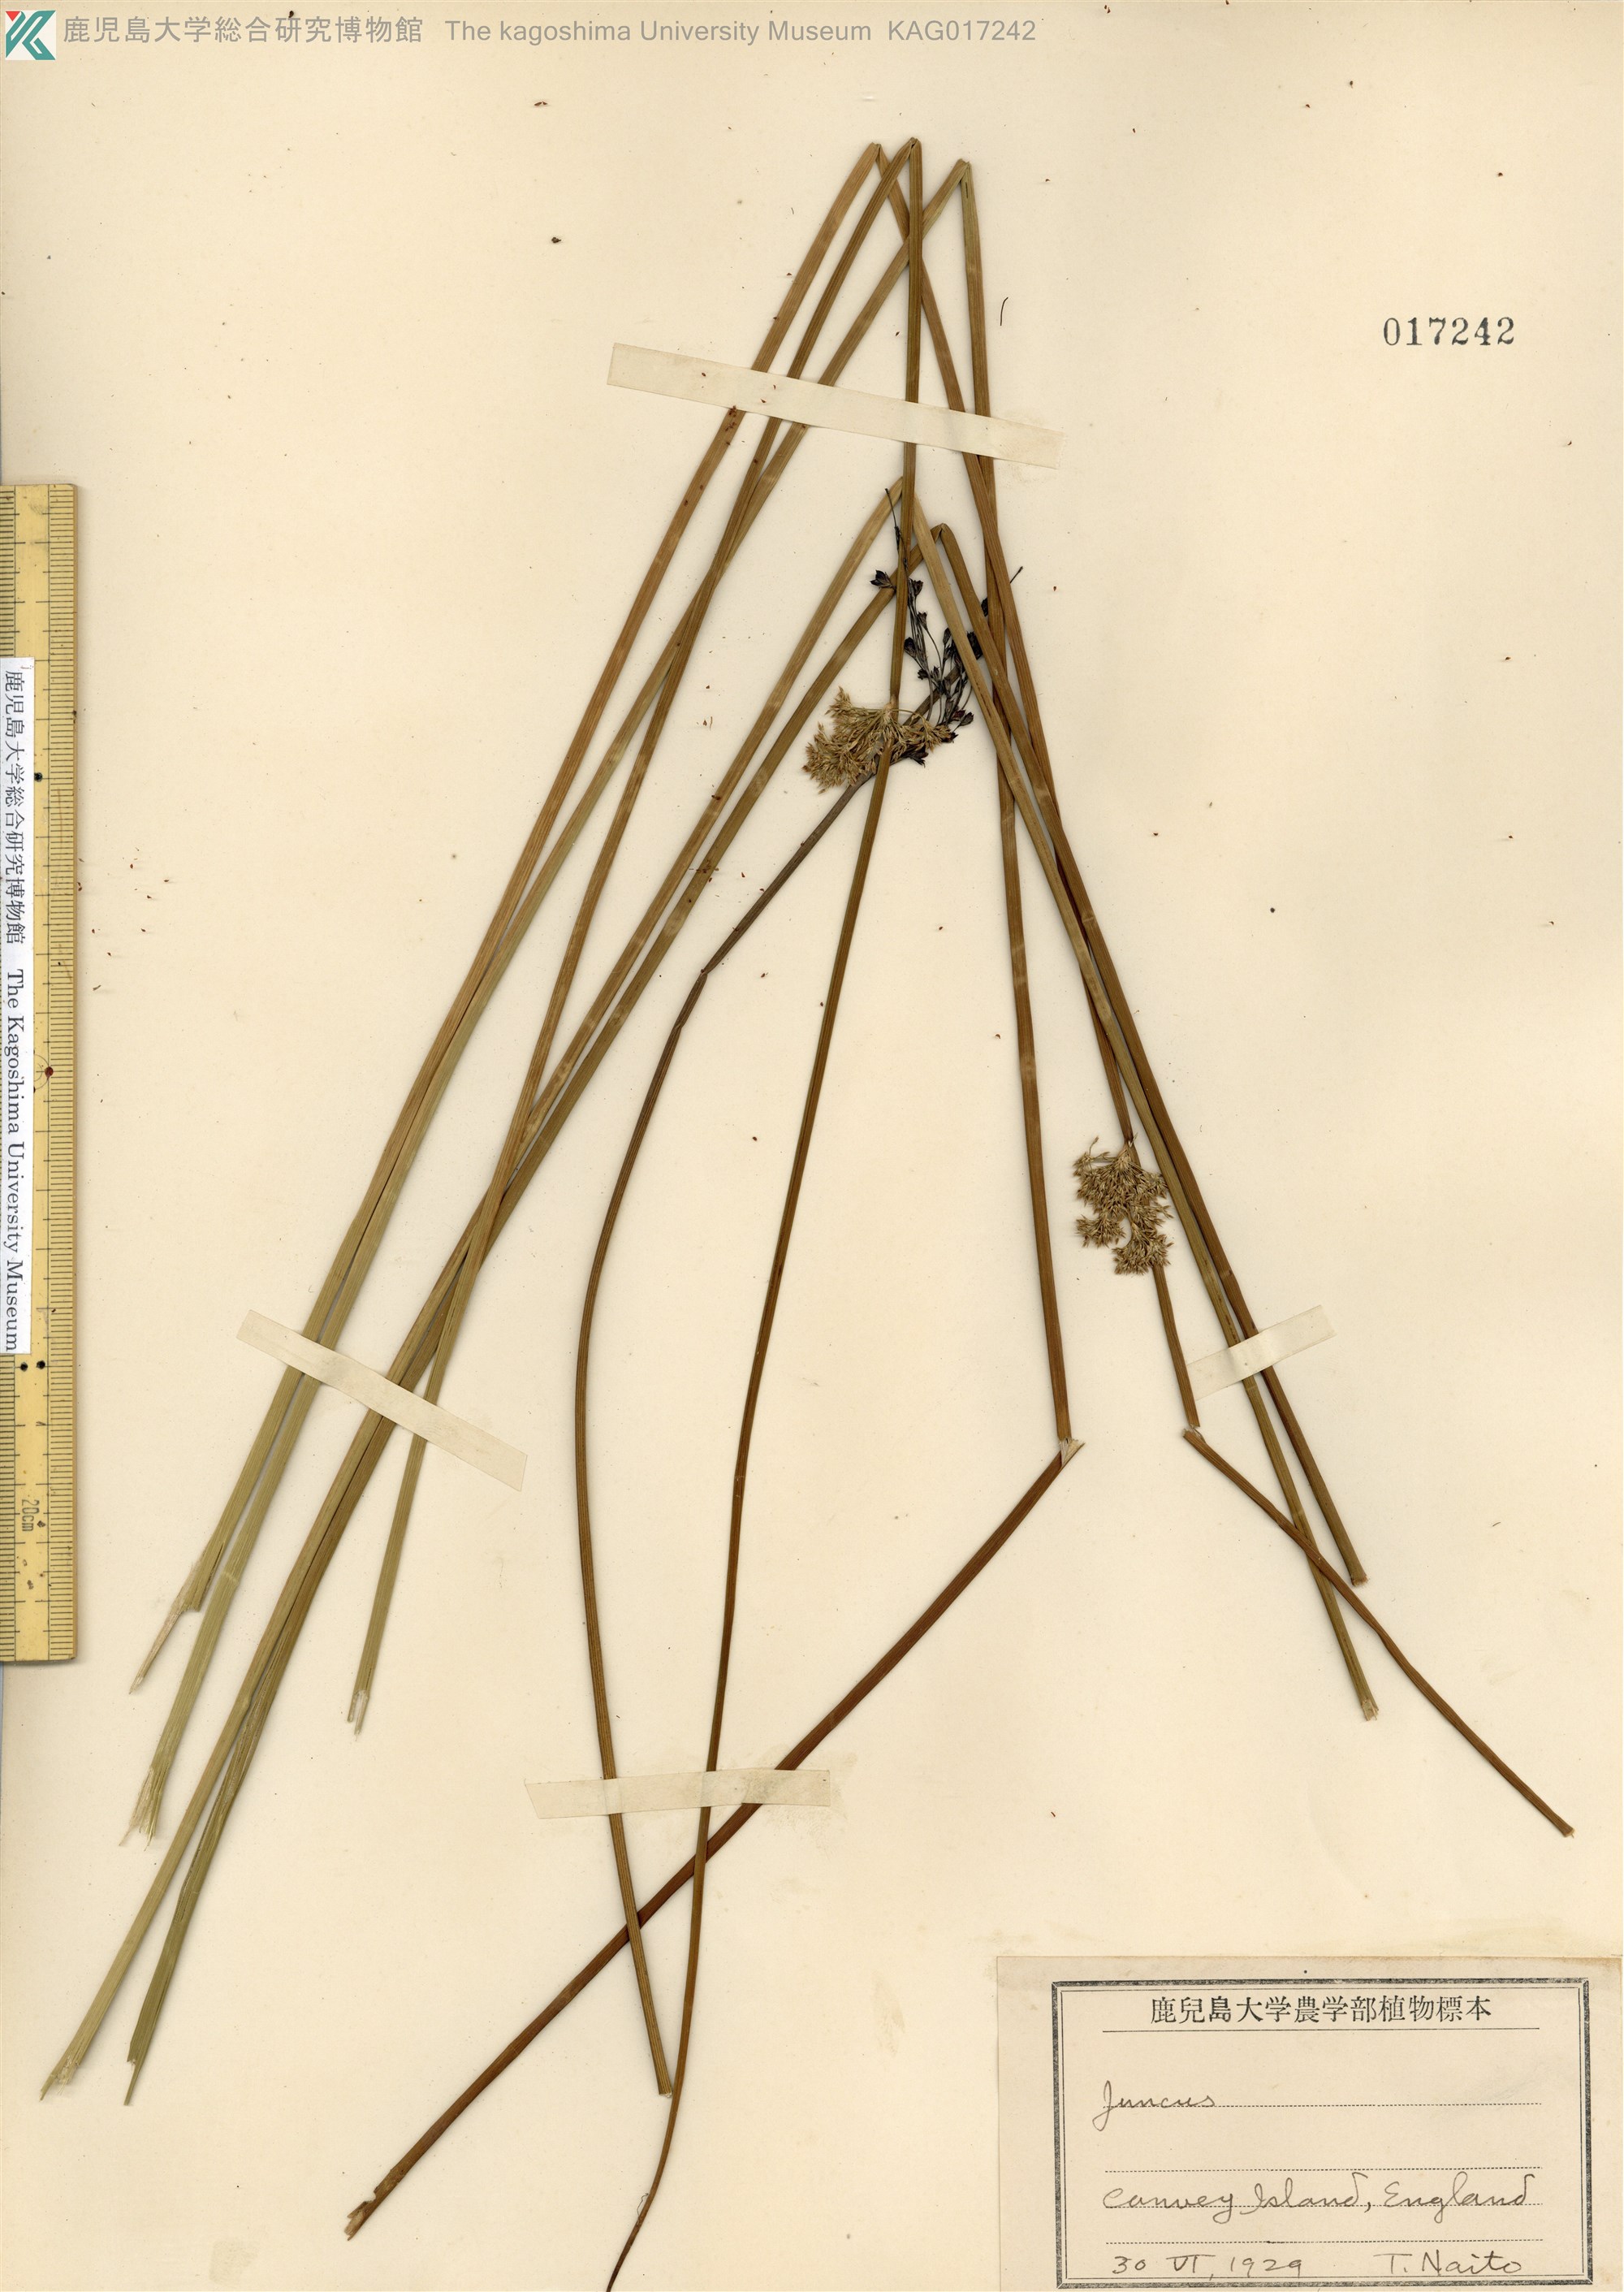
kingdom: Plantae
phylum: Tracheophyta
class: Liliopsida
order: Poales
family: Juncaceae
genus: Juncus
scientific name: Juncus conglomeratus
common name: Compact rush
